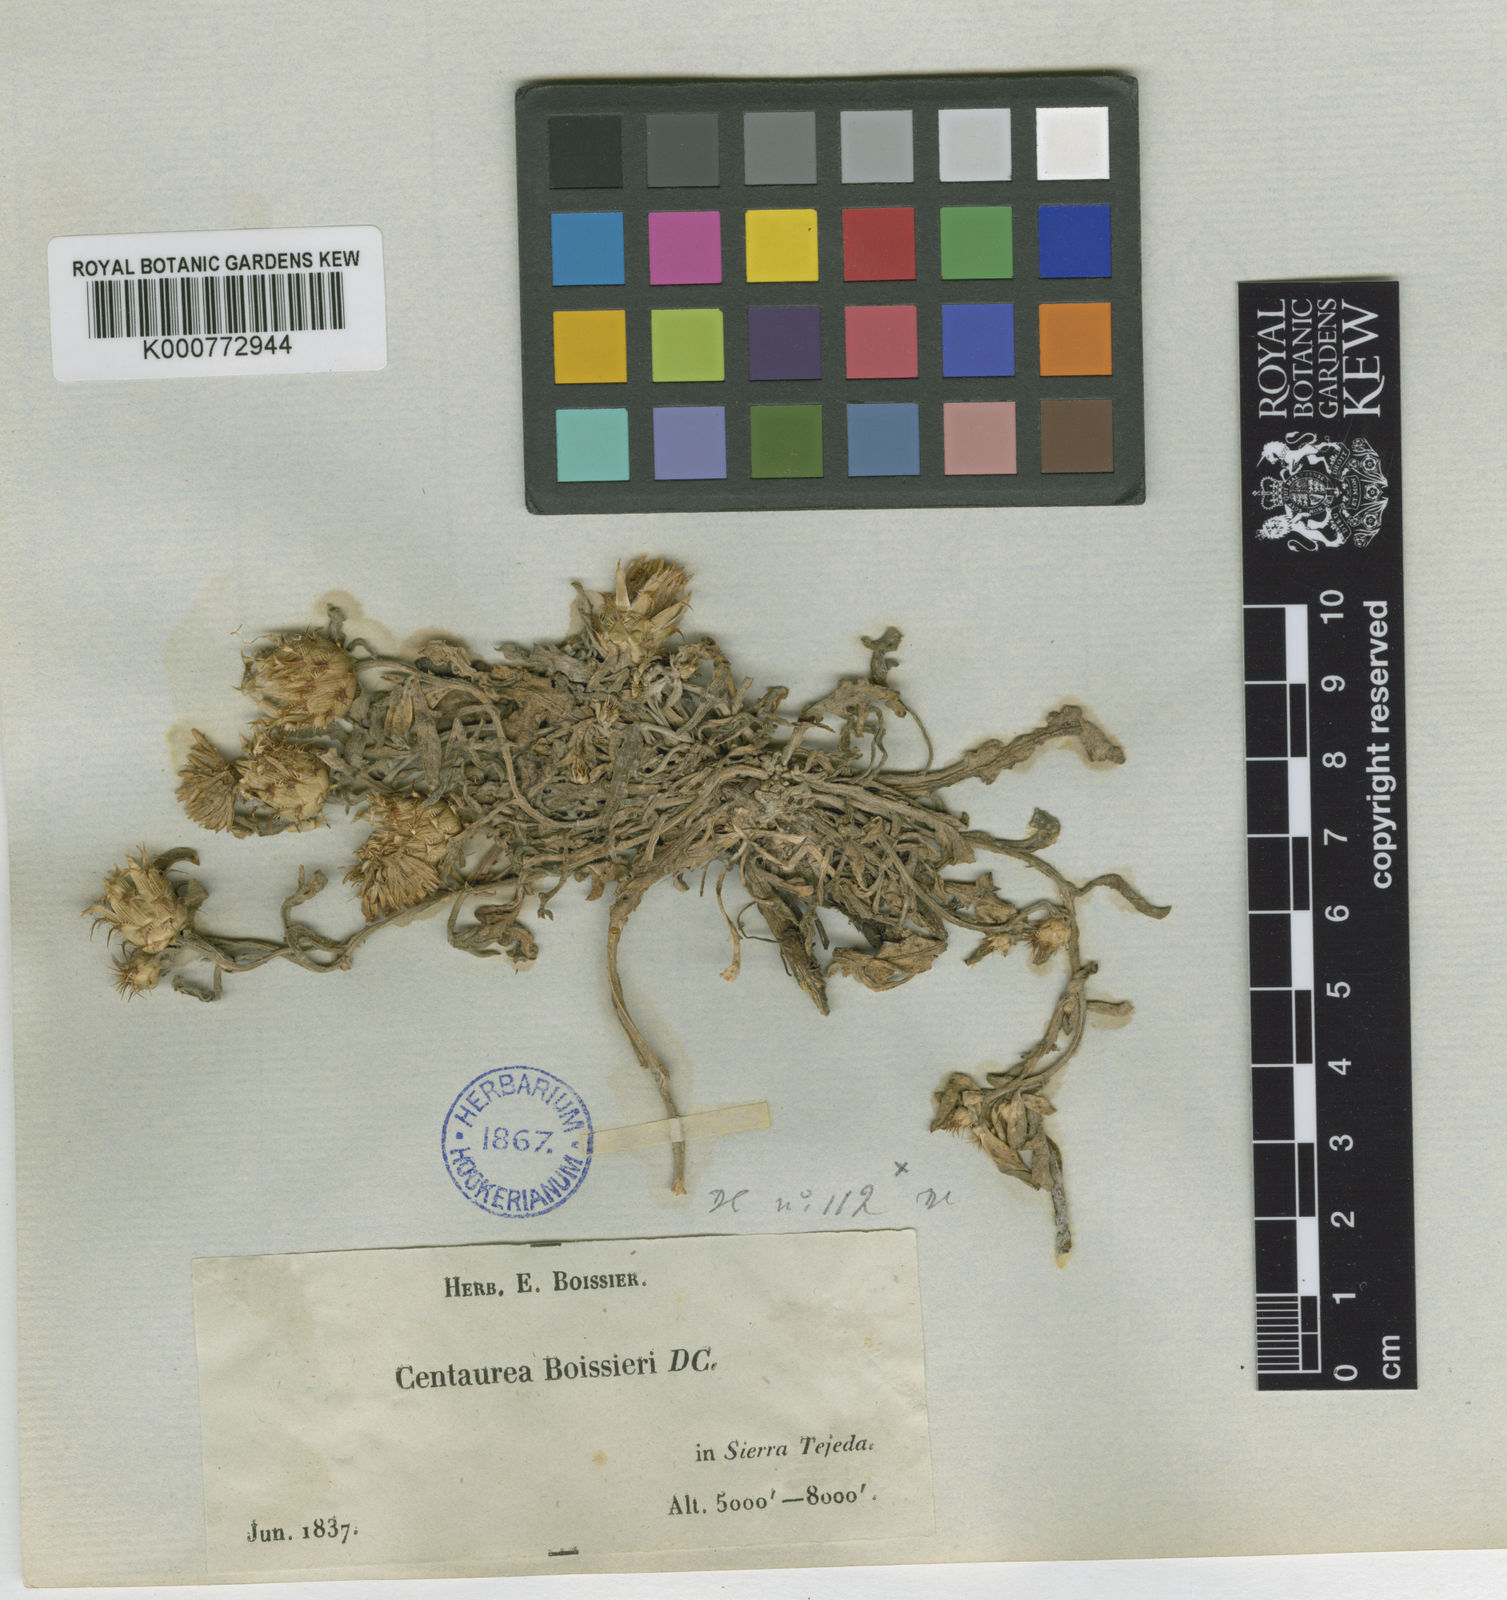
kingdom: Plantae
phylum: Tracheophyta
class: Magnoliopsida
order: Asterales
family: Asteraceae
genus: Centaurea
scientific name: Centaurea boissieri
